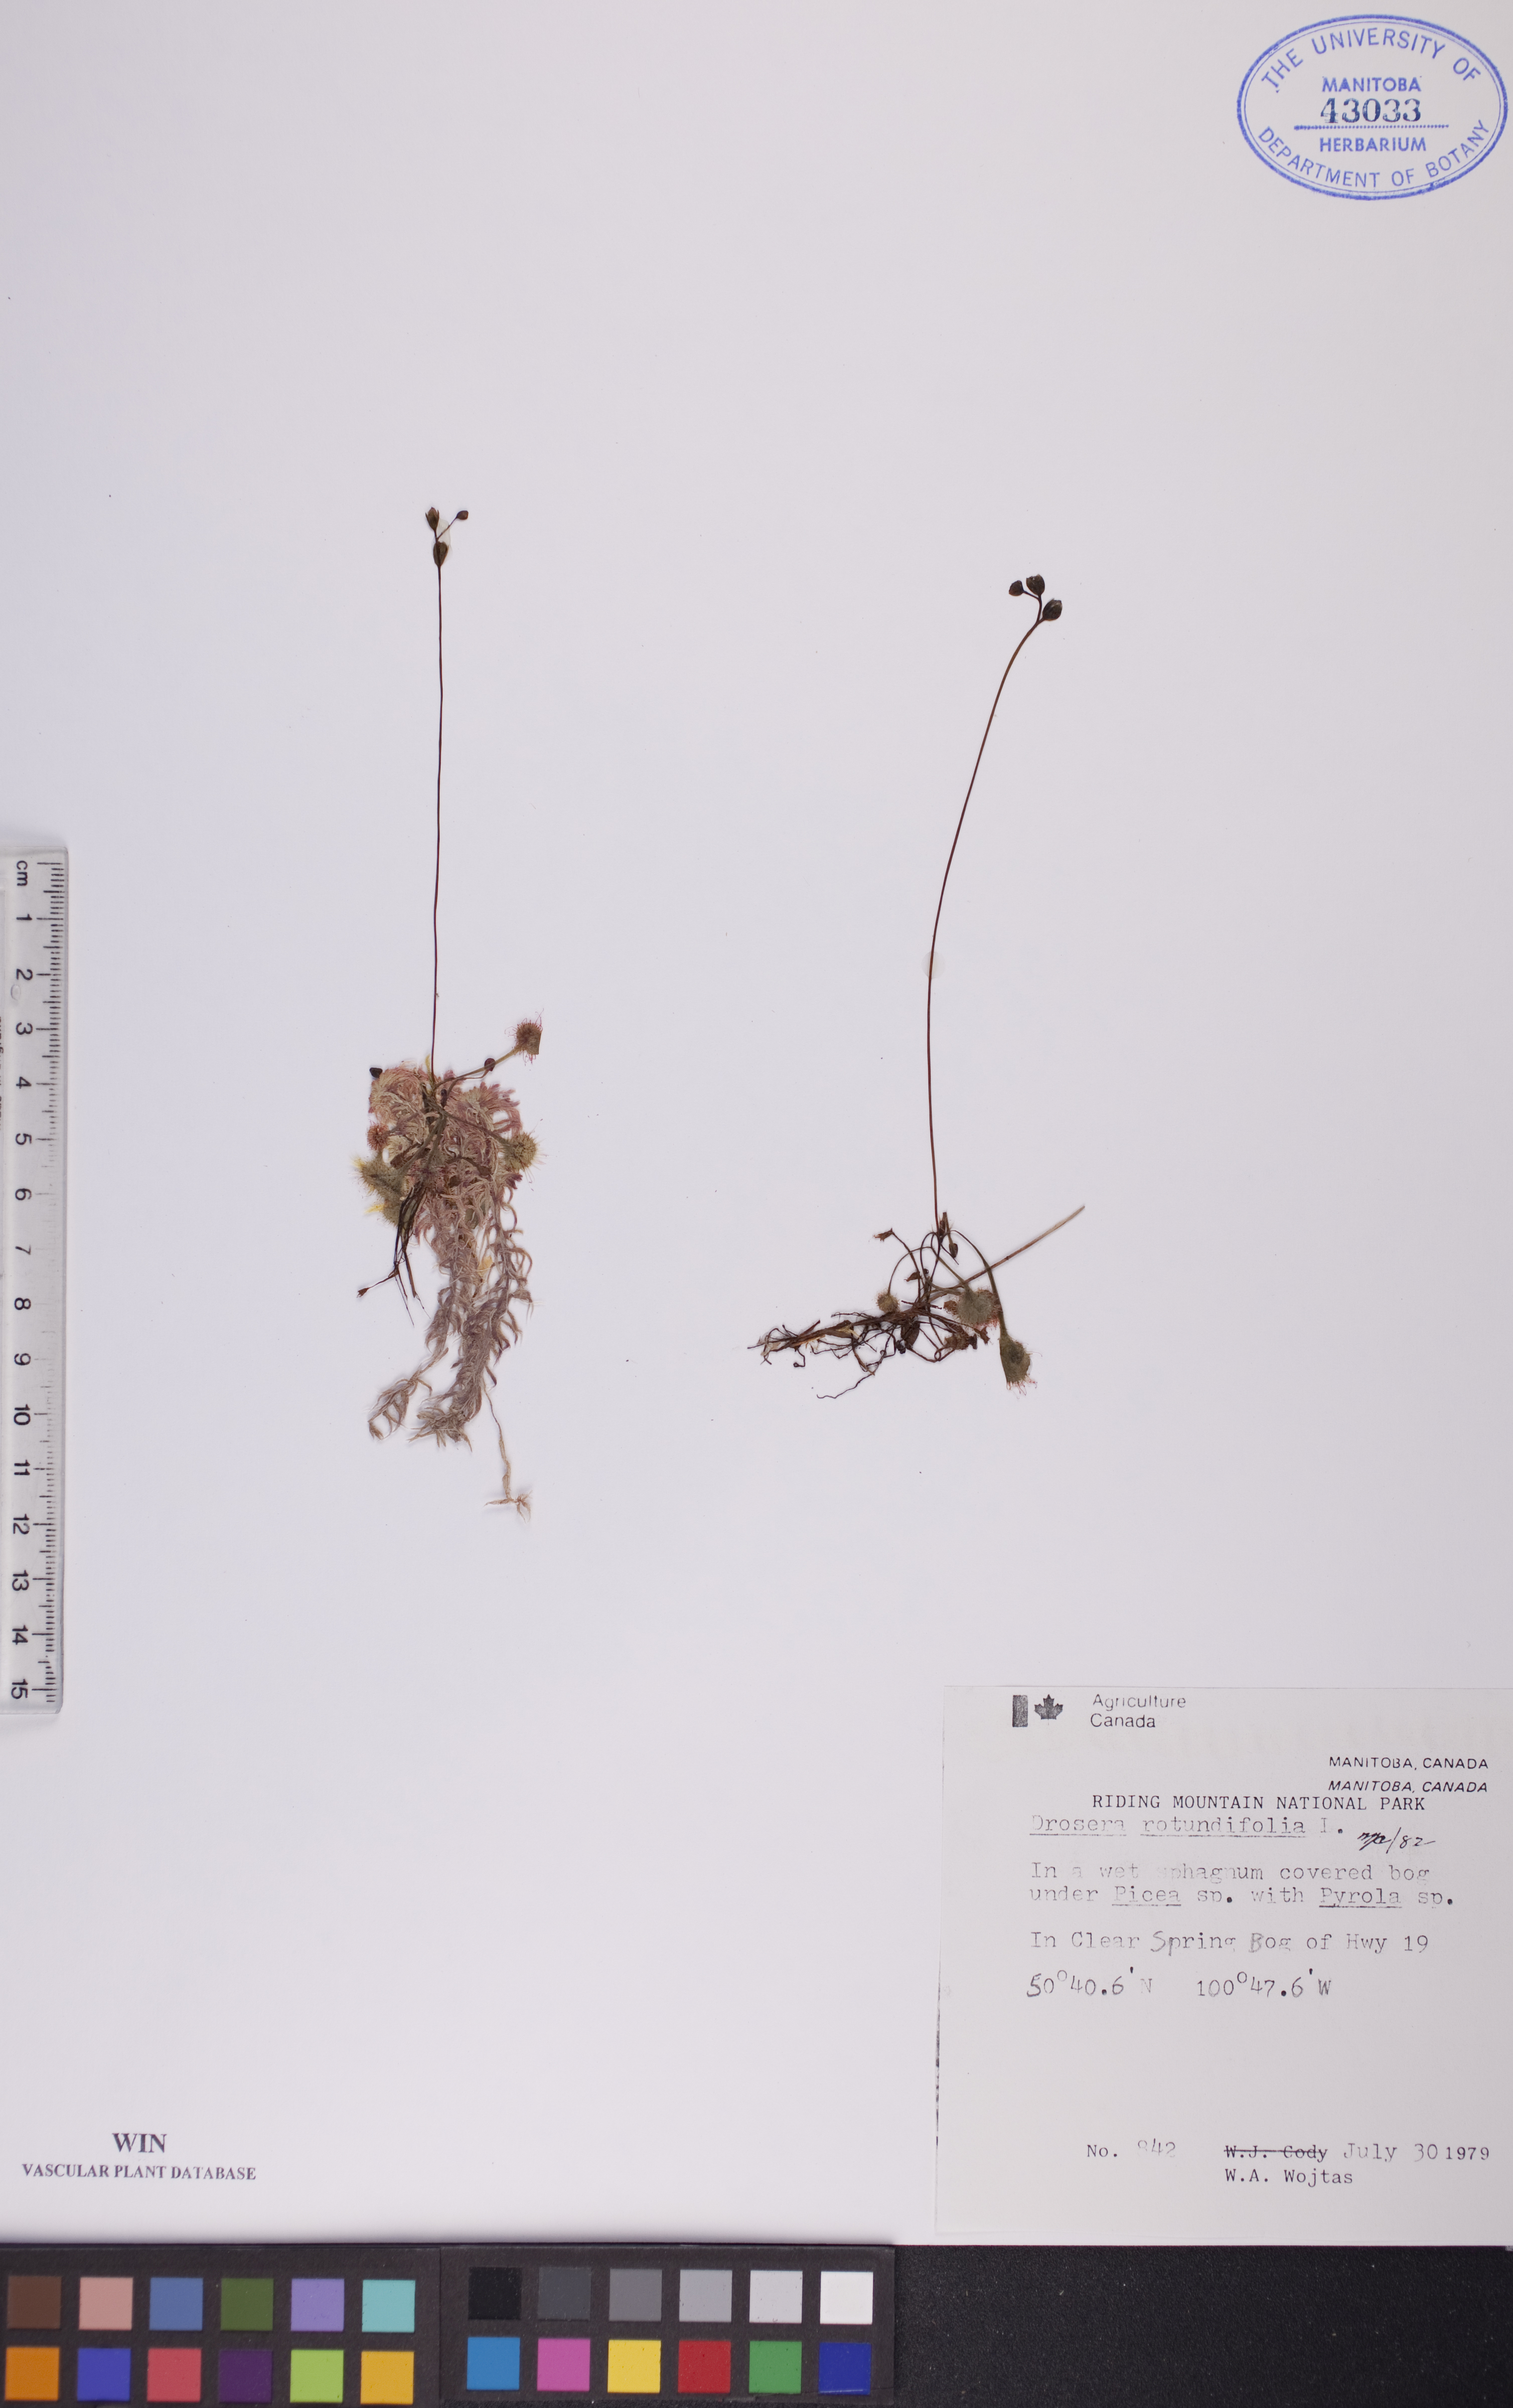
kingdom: Plantae
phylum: Tracheophyta
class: Magnoliopsida
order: Caryophyllales
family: Droseraceae
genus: Drosera
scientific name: Drosera rotundifolia
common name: Round-leaved sundew
